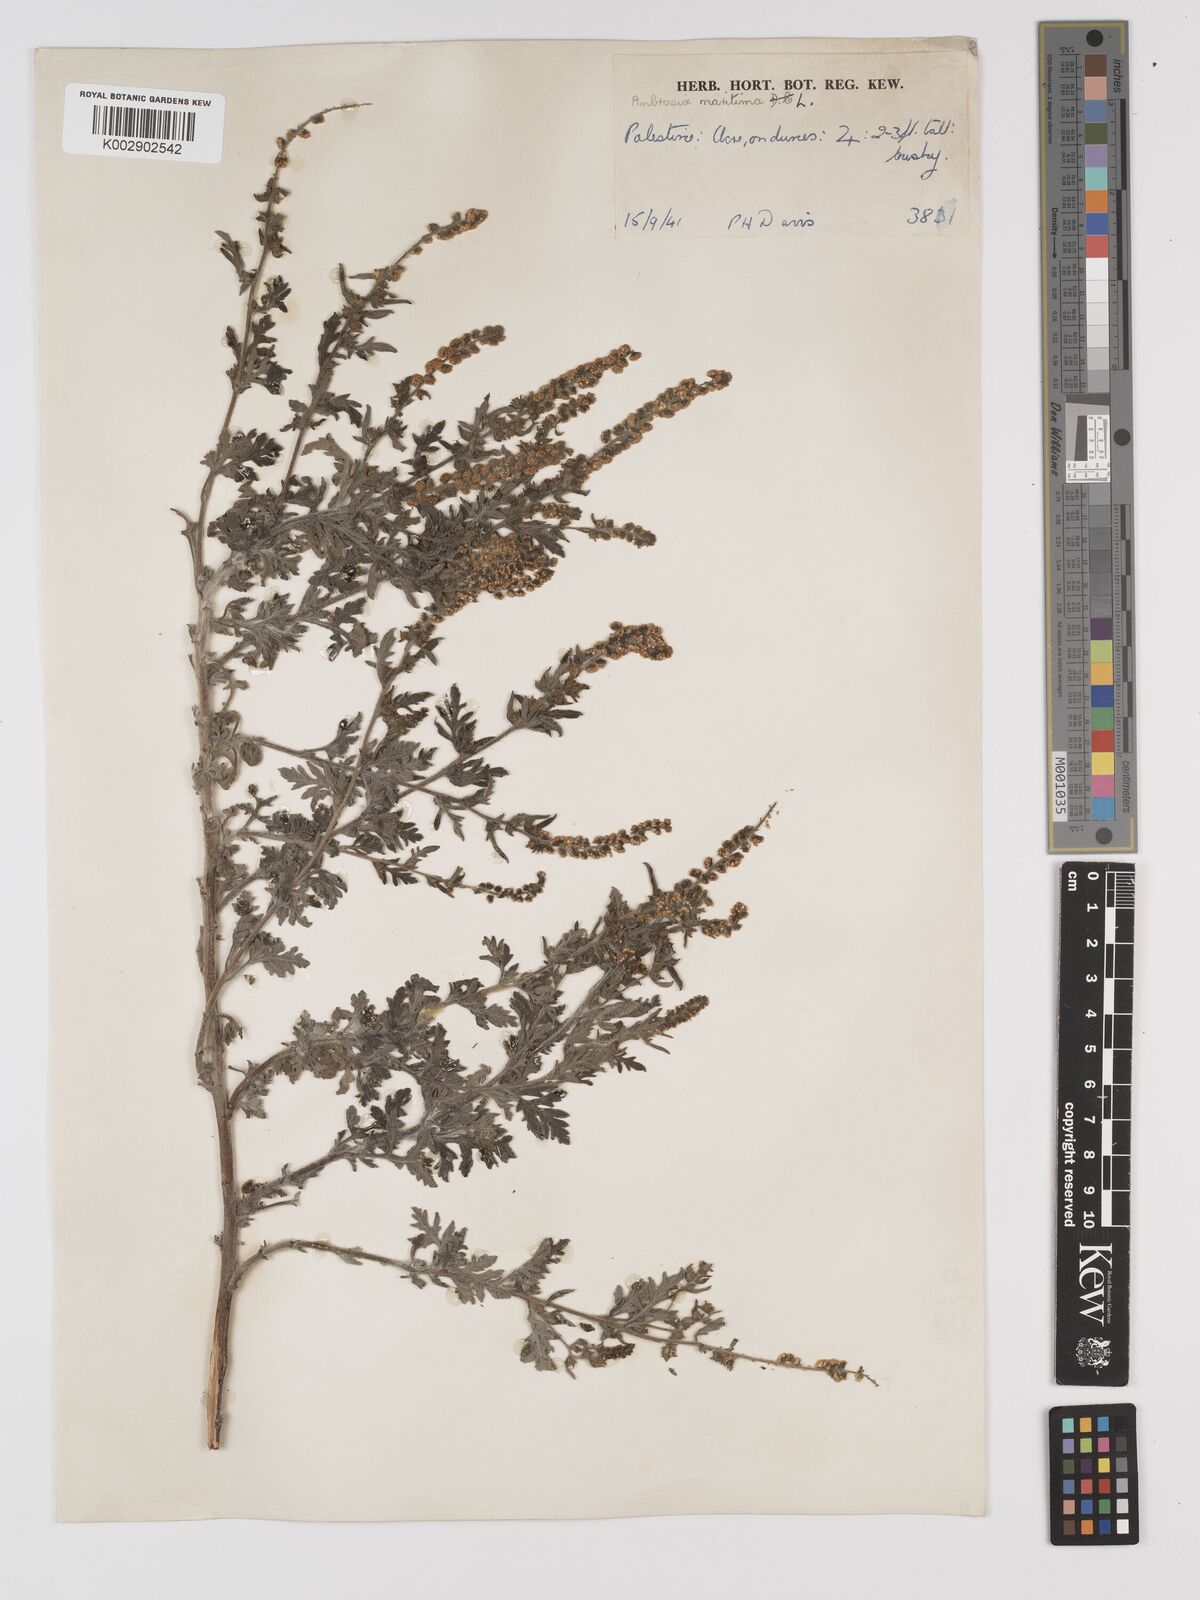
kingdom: Plantae
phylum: Tracheophyta
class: Magnoliopsida
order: Asterales
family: Asteraceae
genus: Ambrosia
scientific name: Ambrosia maritima
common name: Sea ambrosia
